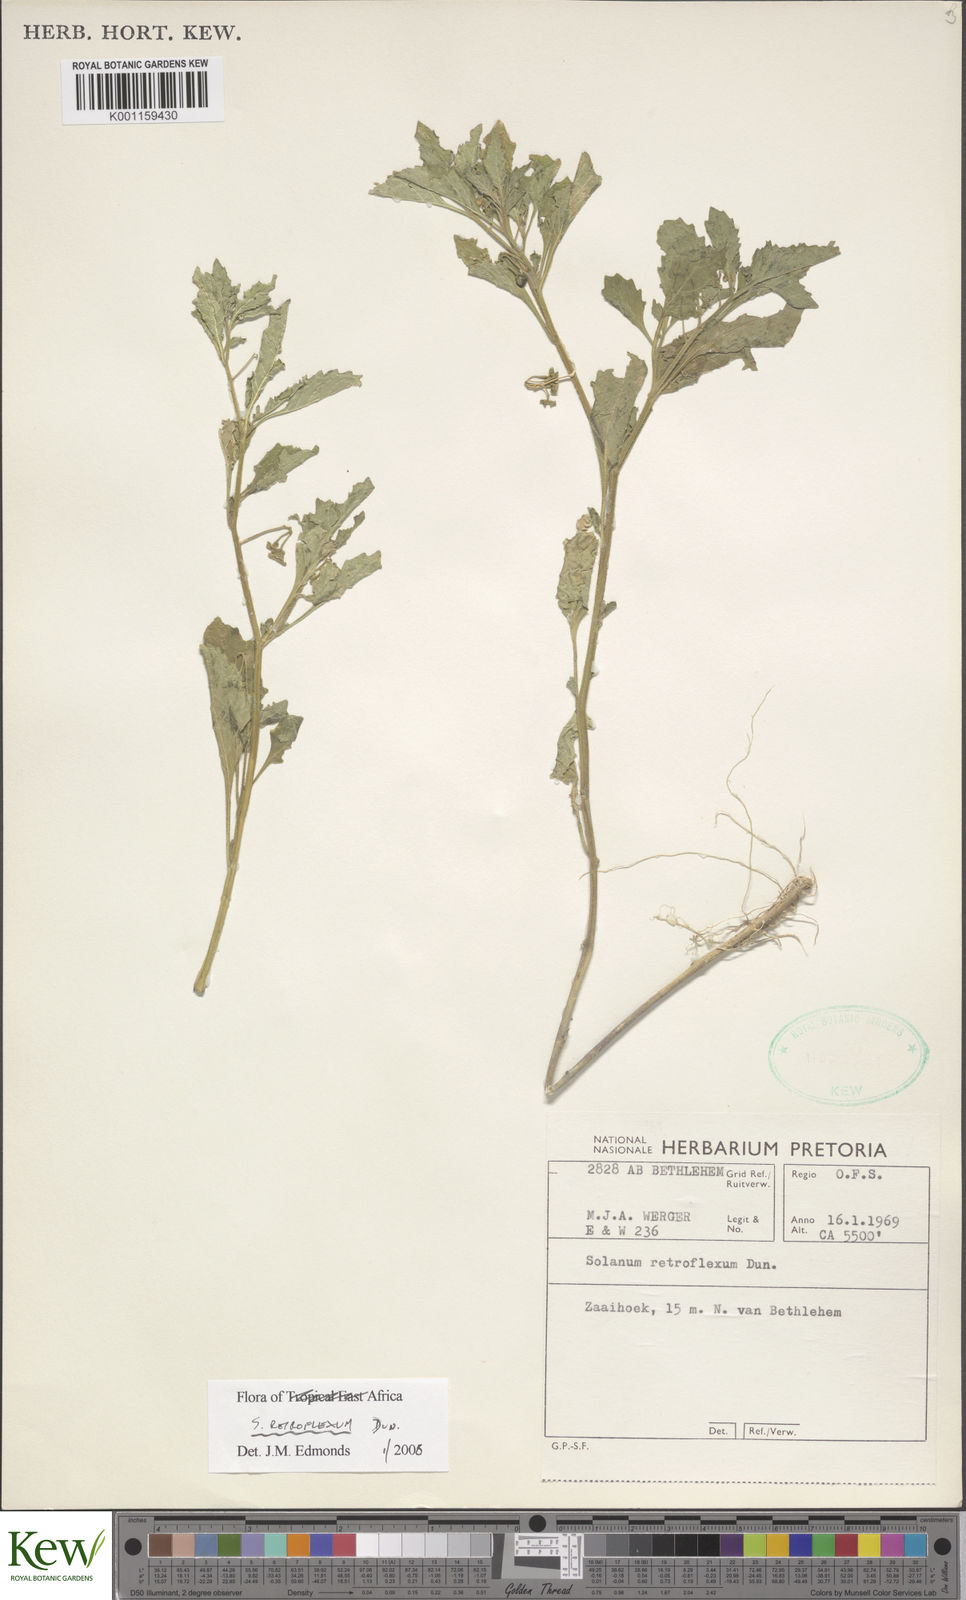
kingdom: Plantae
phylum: Tracheophyta
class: Magnoliopsida
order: Solanales
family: Solanaceae
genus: Solanum
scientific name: Solanum retroflexum
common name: Wonderberry
